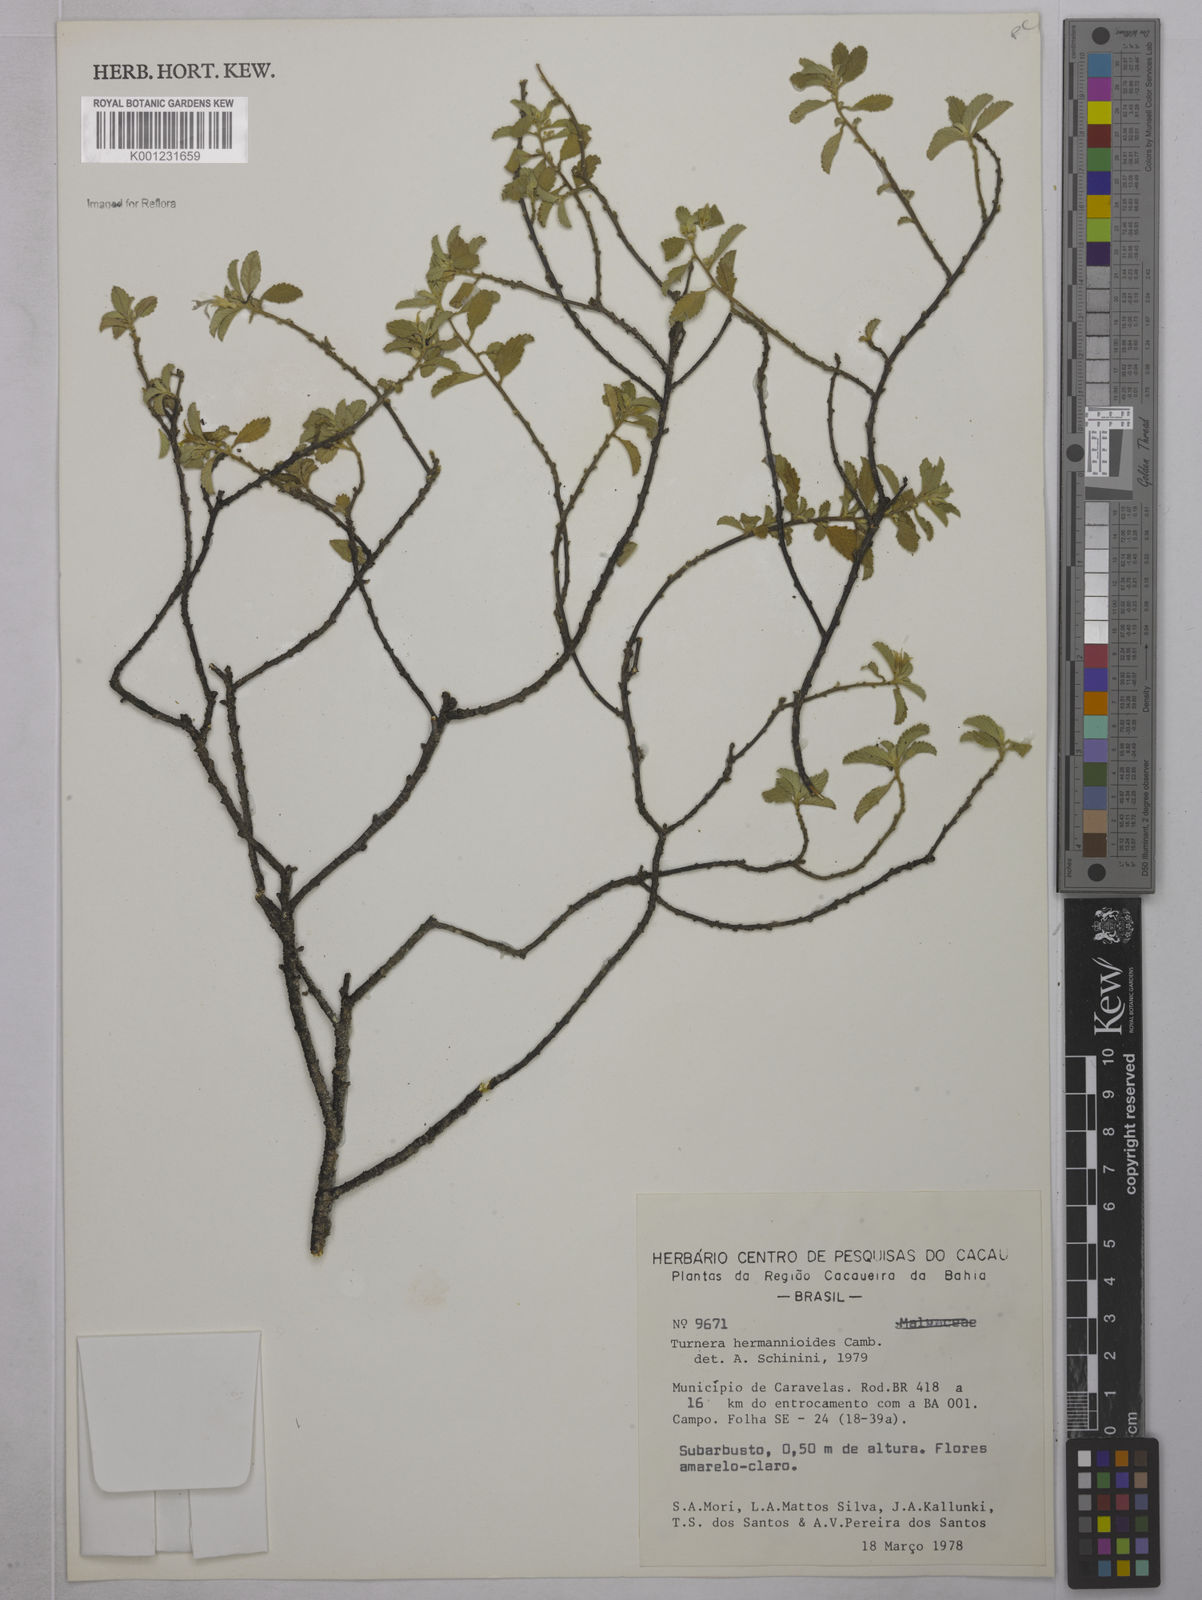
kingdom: Plantae
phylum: Tracheophyta
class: Magnoliopsida
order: Malpighiales
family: Turneraceae
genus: Turnera
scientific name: Turnera hermannioides
